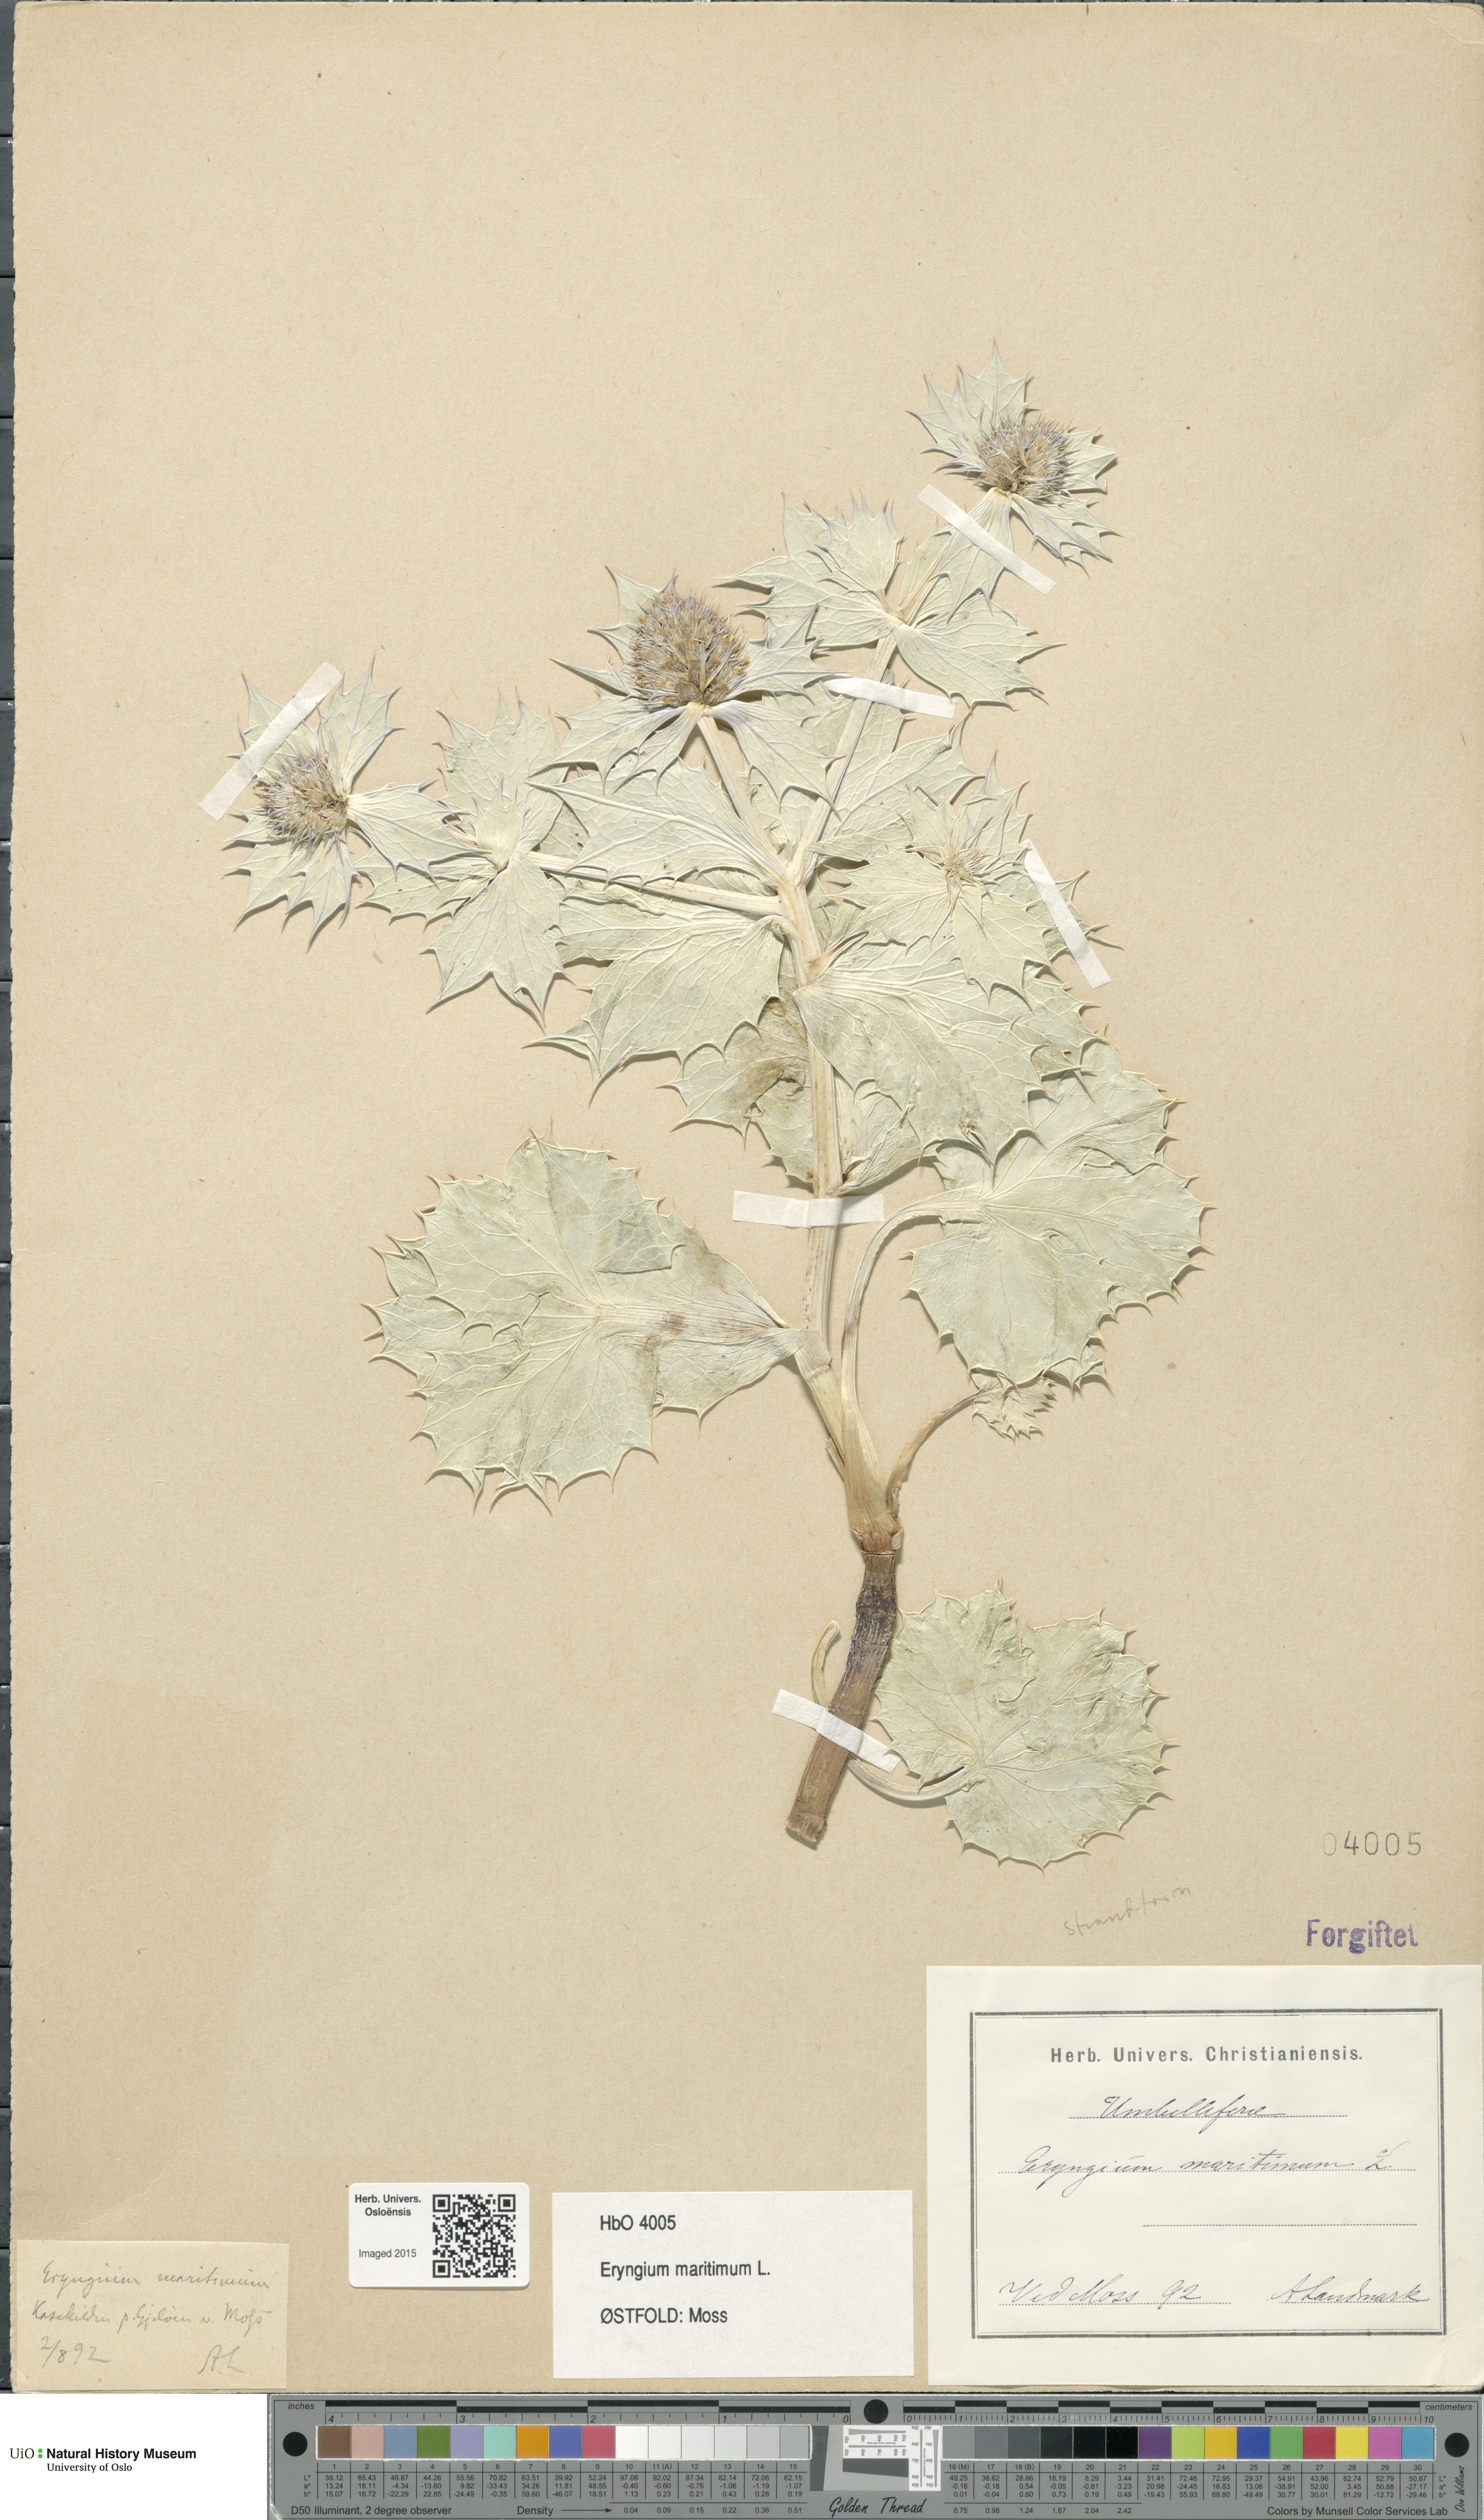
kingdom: Plantae
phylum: Tracheophyta
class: Magnoliopsida
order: Apiales
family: Apiaceae
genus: Eryngium
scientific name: Eryngium maritimum
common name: Sea-holly
